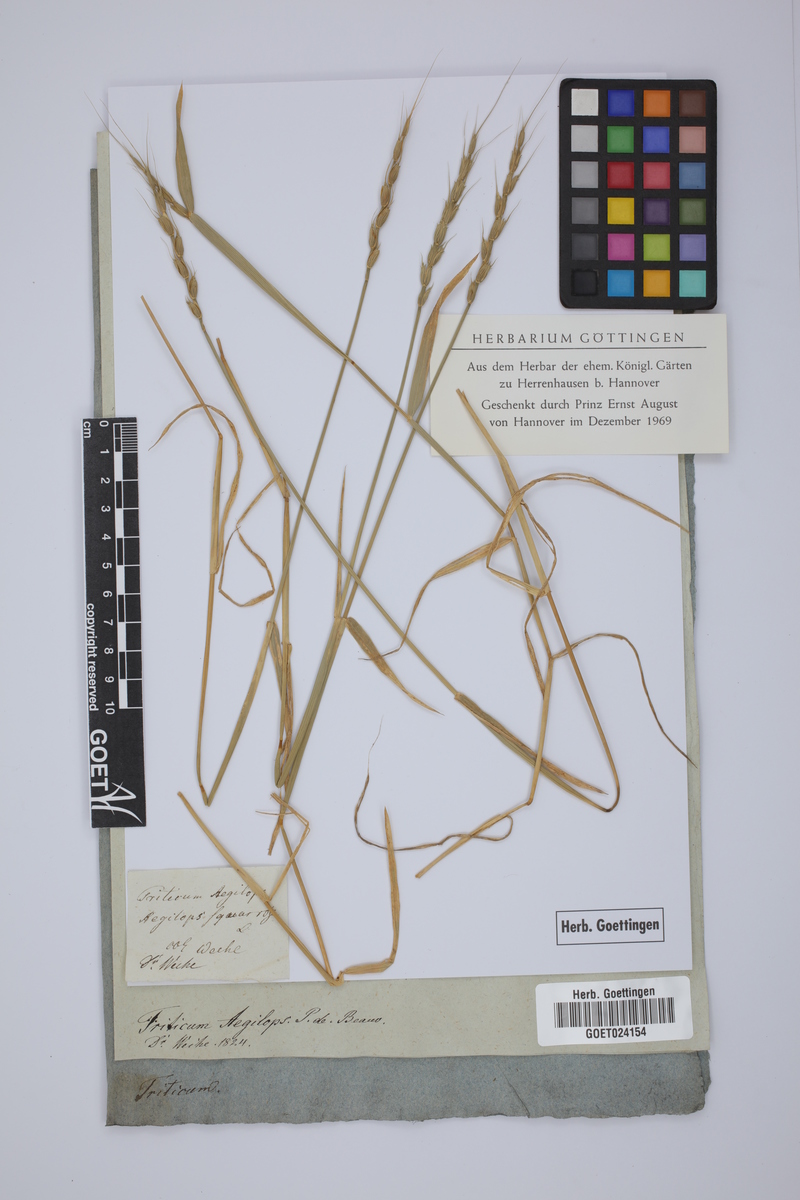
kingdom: Plantae
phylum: Tracheophyta
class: Liliopsida
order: Poales
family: Poaceae
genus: Aegilops
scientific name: Aegilops tauschii
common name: Rough-spike hard grass
